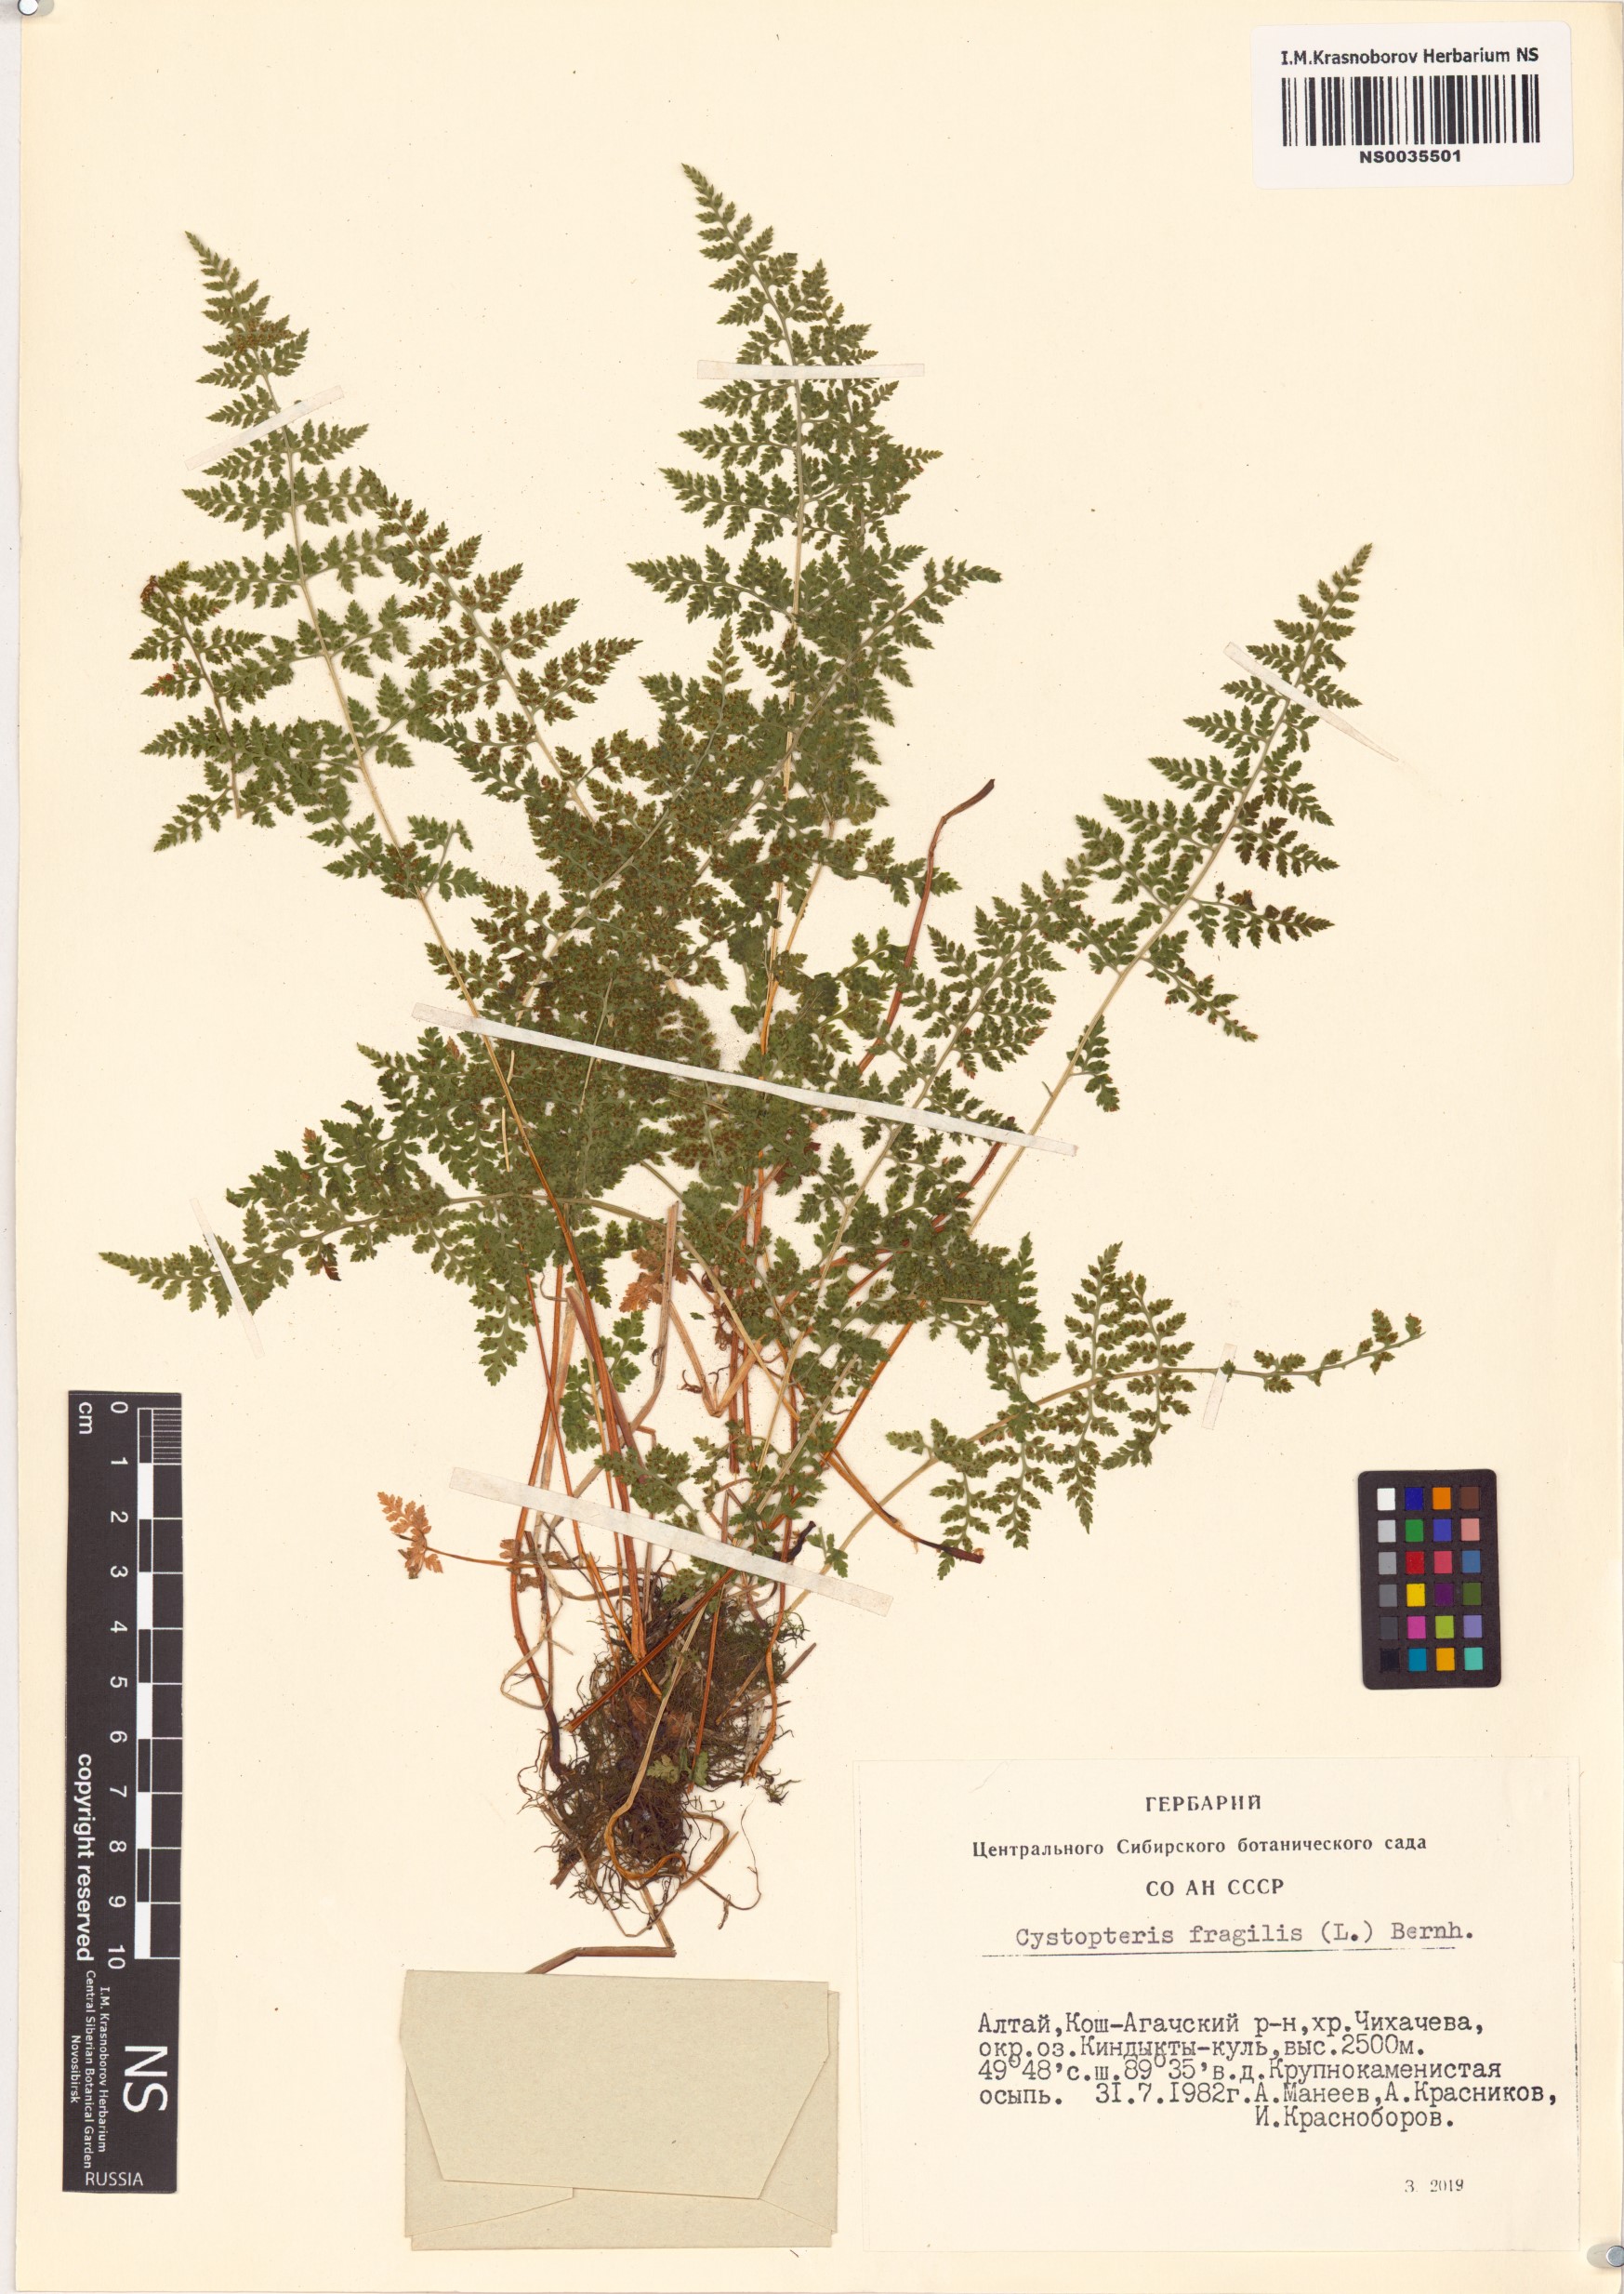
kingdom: Plantae
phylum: Tracheophyta
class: Polypodiopsida
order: Polypodiales
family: Cystopteridaceae
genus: Cystopteris
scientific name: Cystopteris fragilis
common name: Brittle bladder fern
